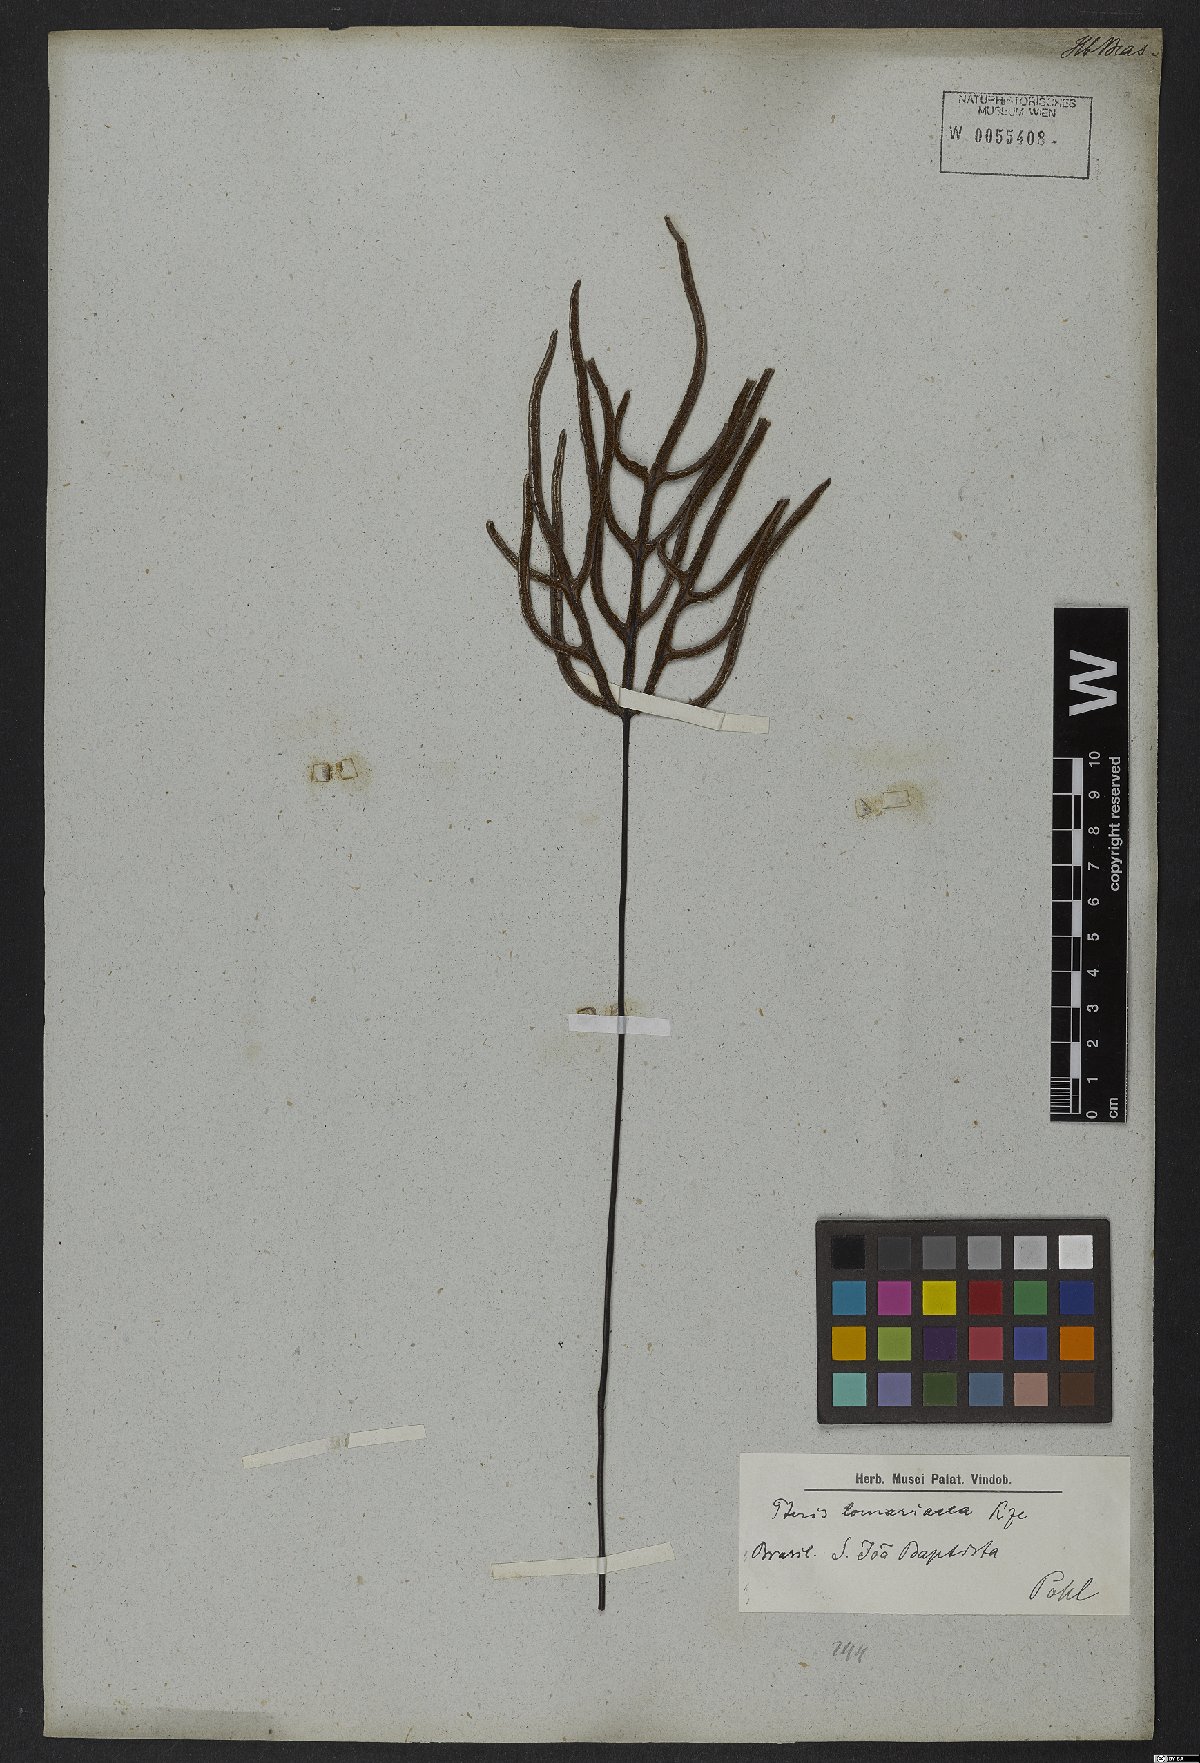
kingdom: Plantae
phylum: Tracheophyta
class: Polypodiopsida
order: Polypodiales
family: Pteridaceae
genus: Lytoneuron
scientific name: Lytoneuron lomariaceum
